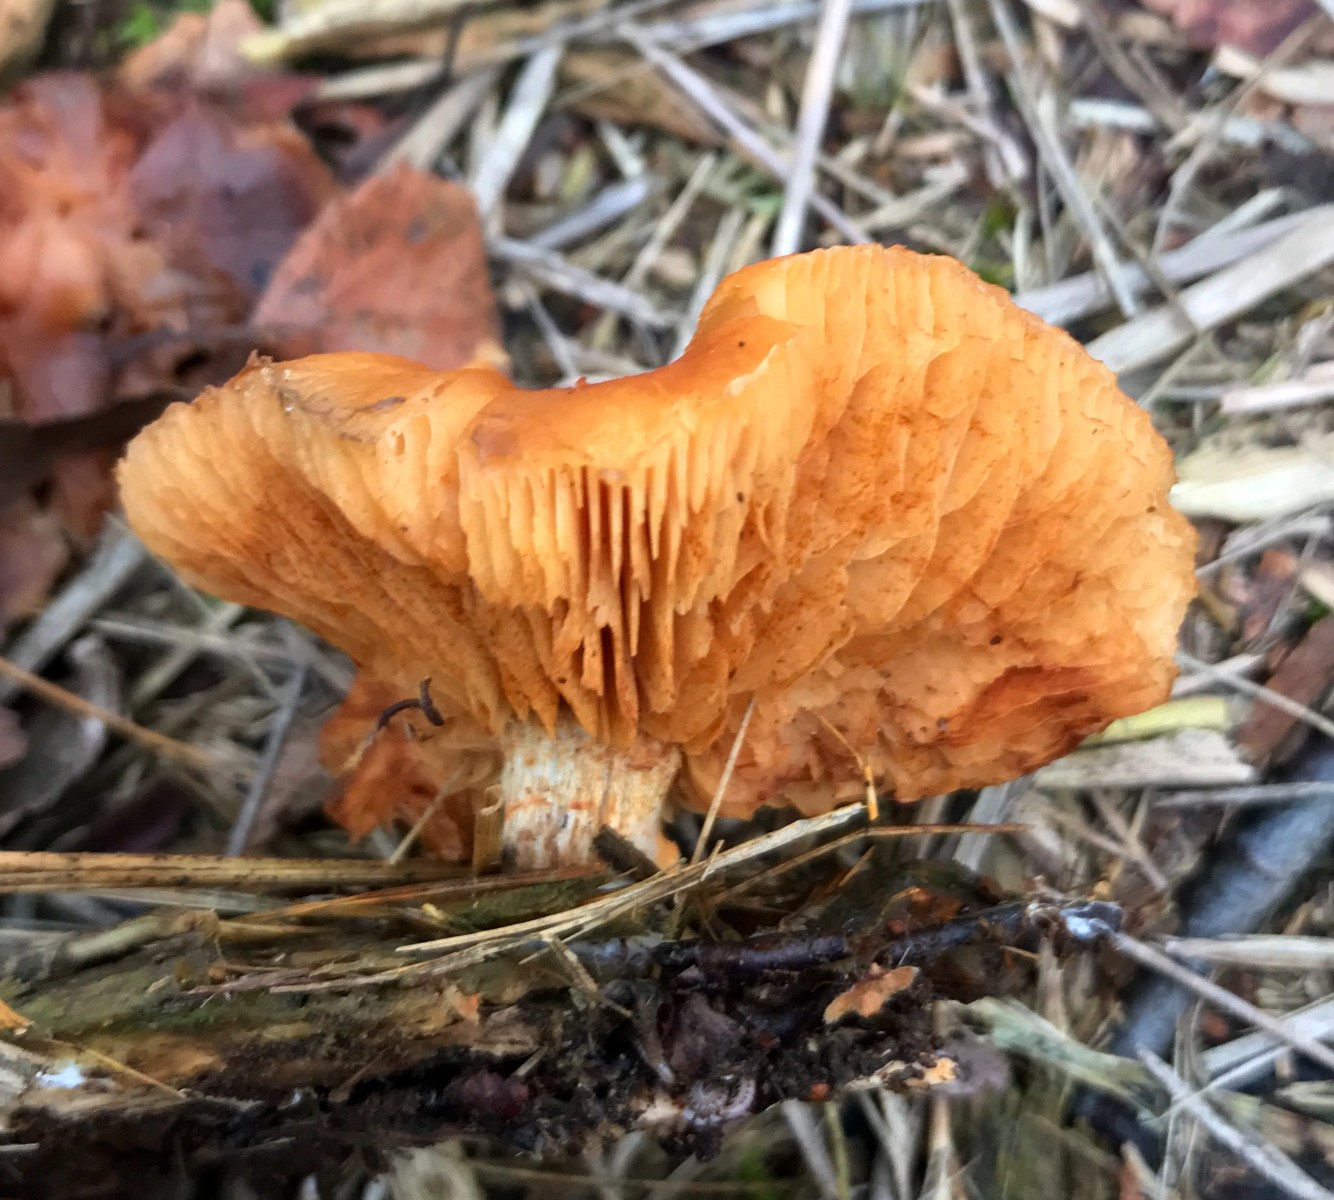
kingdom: Fungi
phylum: Basidiomycota
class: Agaricomycetes
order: Agaricales
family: Hymenogastraceae
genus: Gymnopilus
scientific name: Gymnopilus penetrans
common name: plettet flammehat
